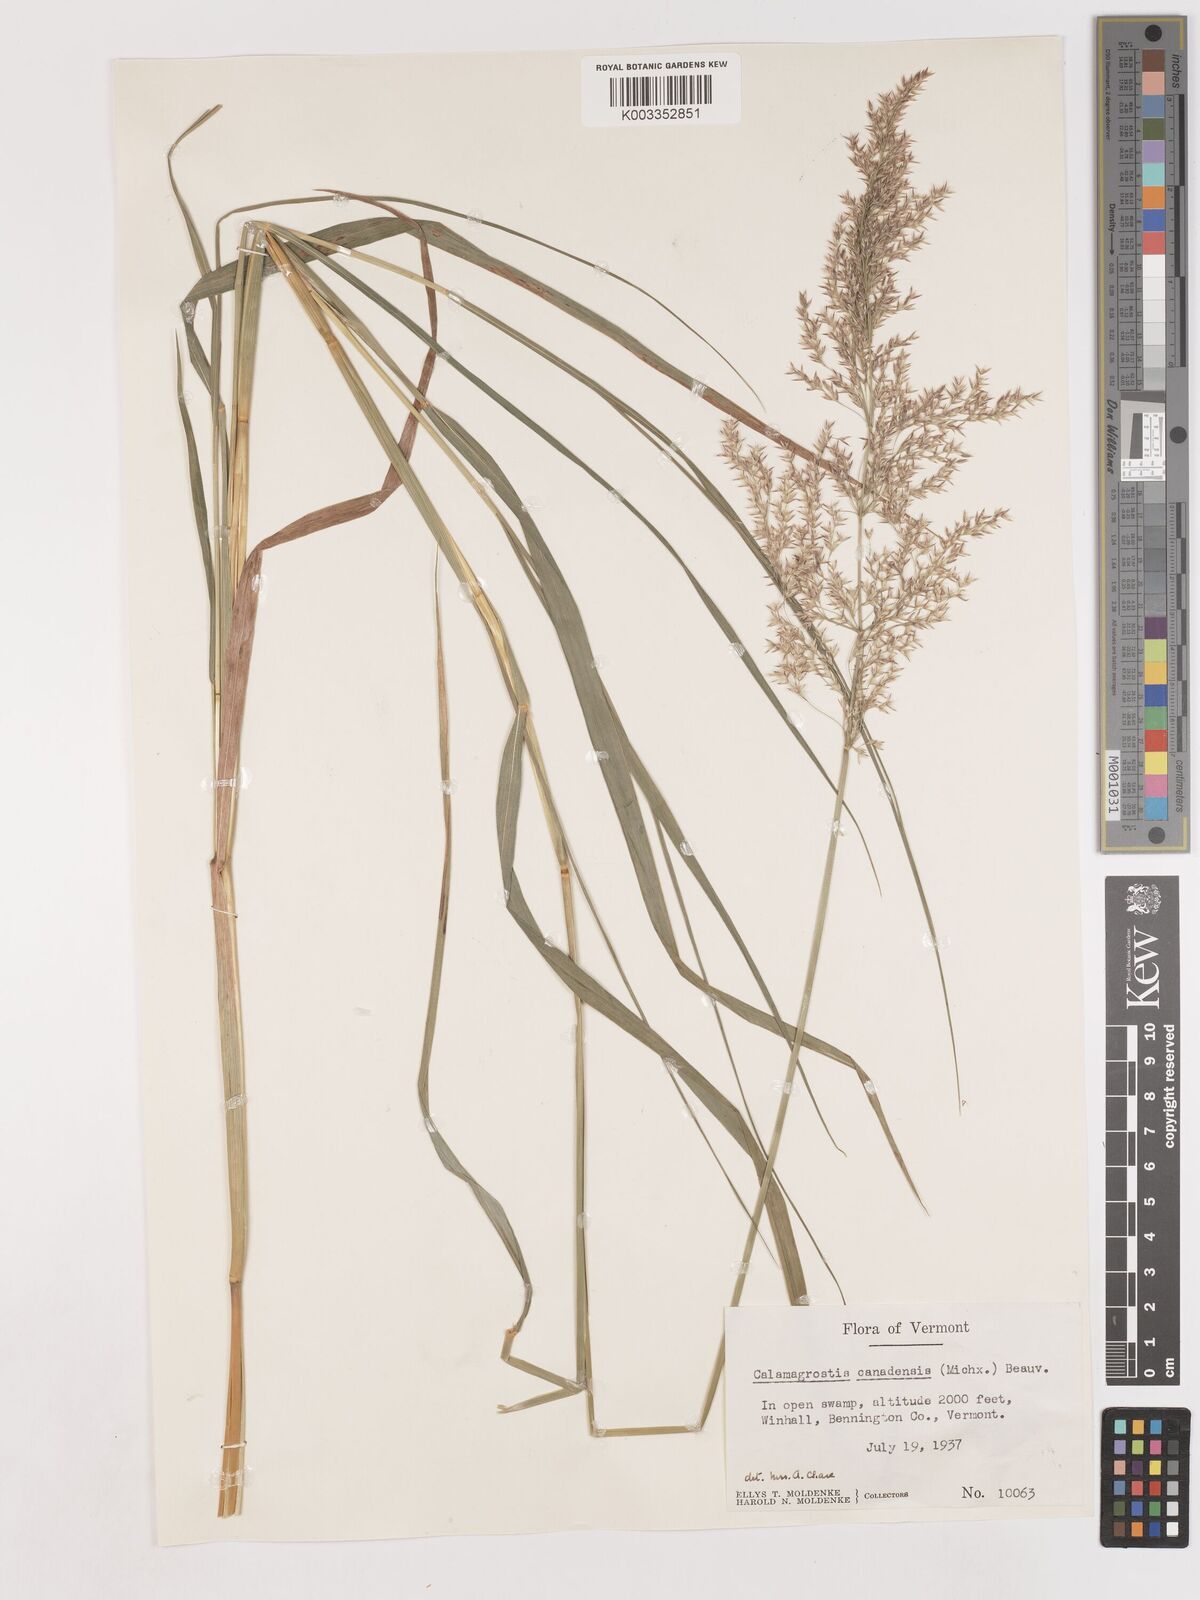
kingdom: Plantae
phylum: Tracheophyta
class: Liliopsida
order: Poales
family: Poaceae
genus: Calamagrostis
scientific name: Calamagrostis canadensis
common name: Canada bluejoint
